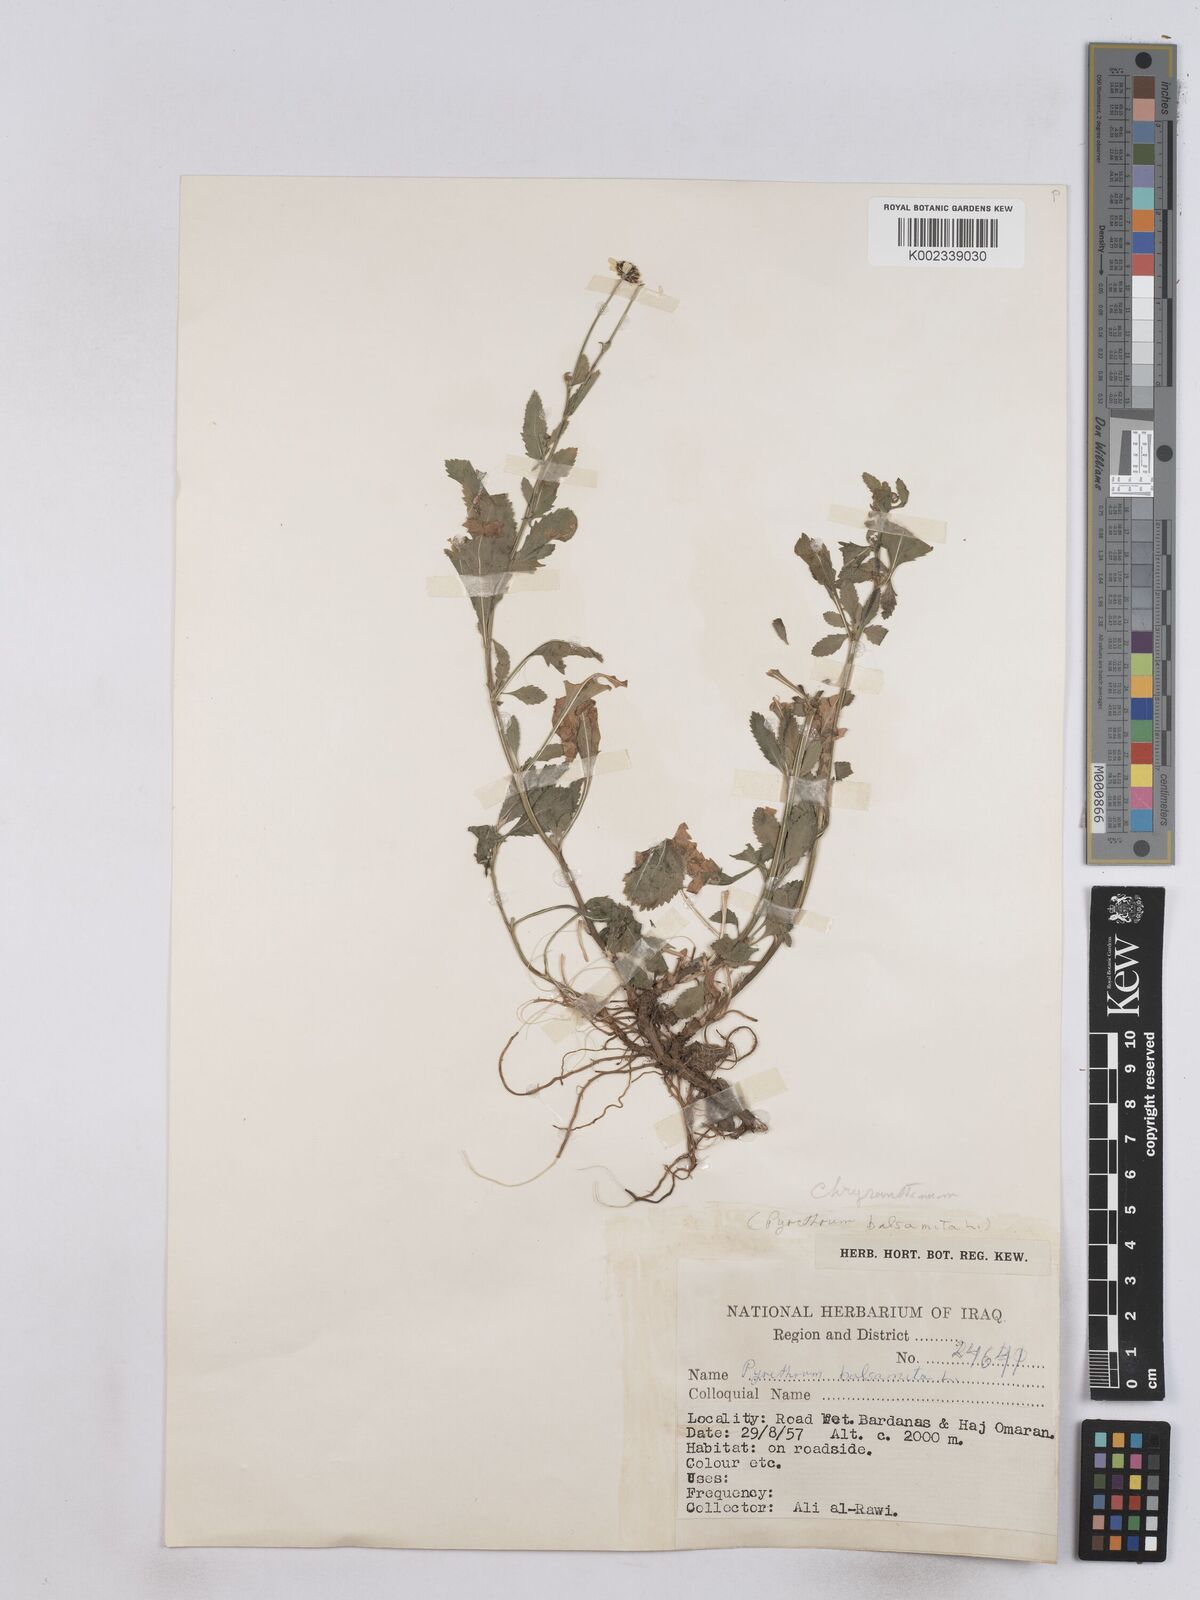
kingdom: Plantae
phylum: Tracheophyta
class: Magnoliopsida
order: Asterales
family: Asteraceae
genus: Tanacetum
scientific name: Tanacetum balsamitoides
